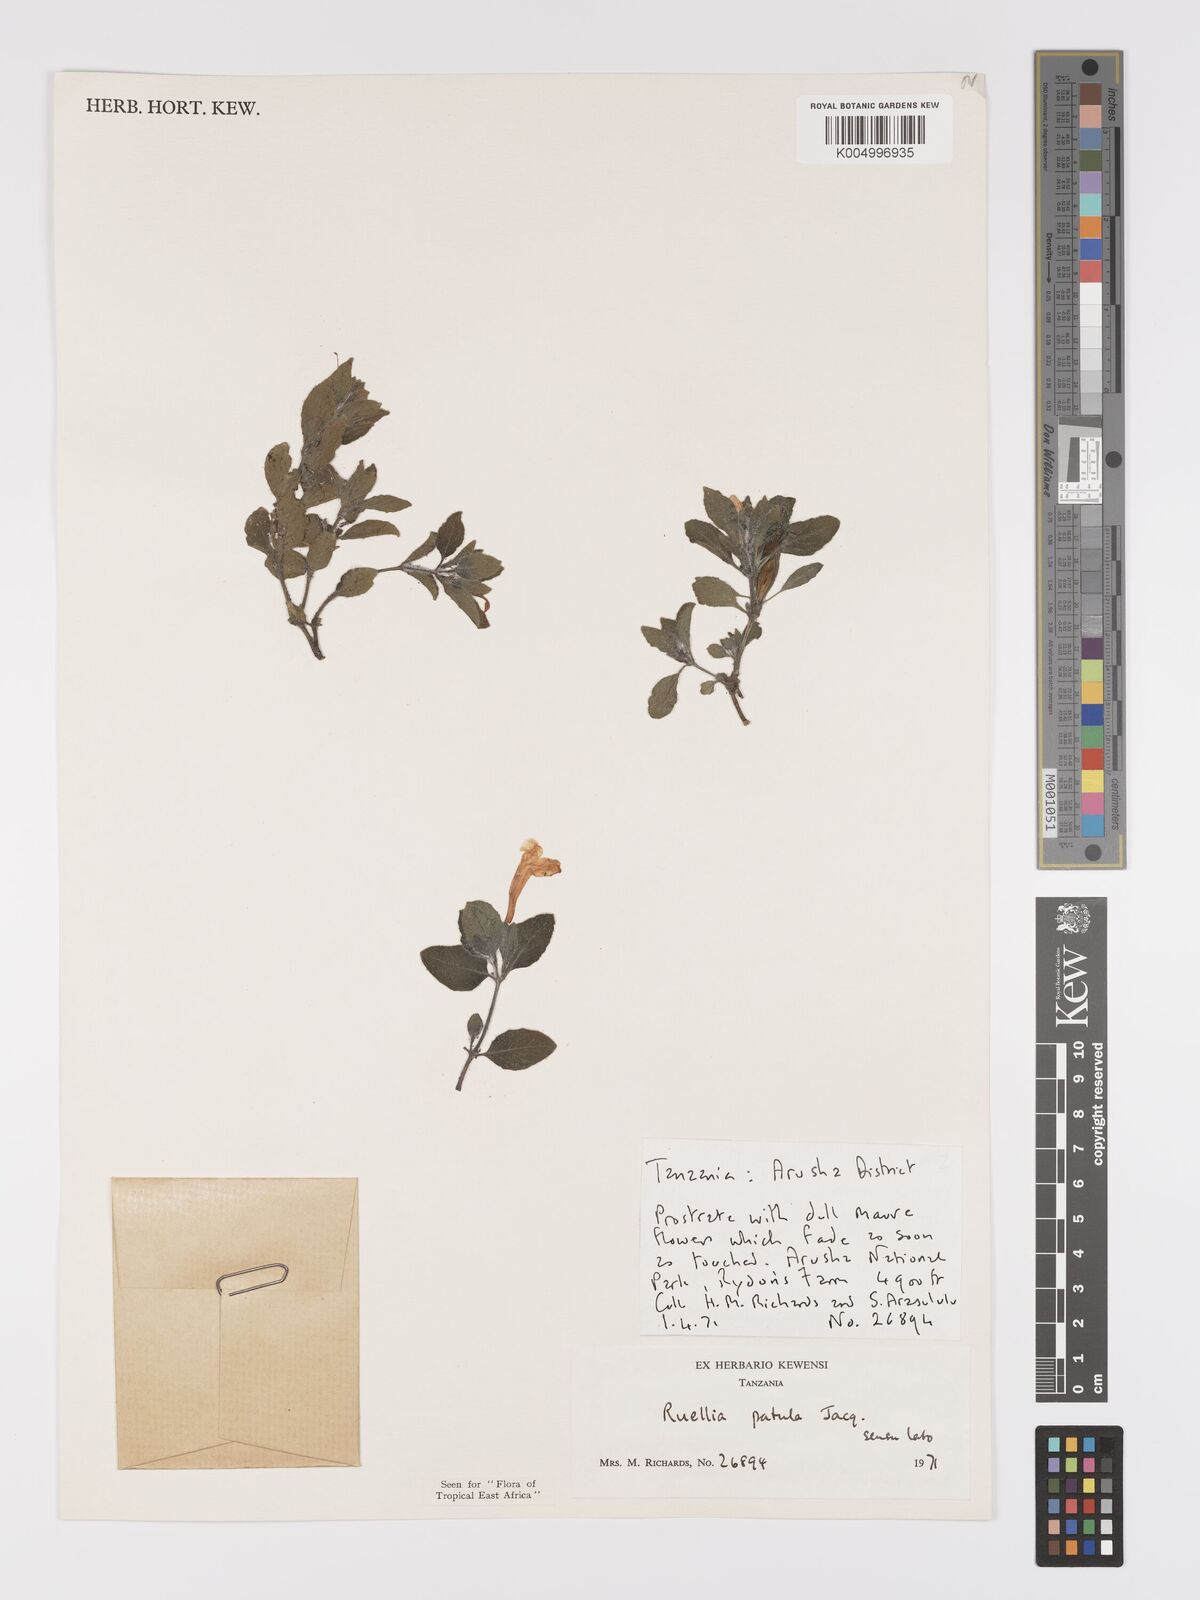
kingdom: Plantae
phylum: Tracheophyta
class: Magnoliopsida
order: Lamiales
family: Acanthaceae
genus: Ruellia
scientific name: Ruellia patula
